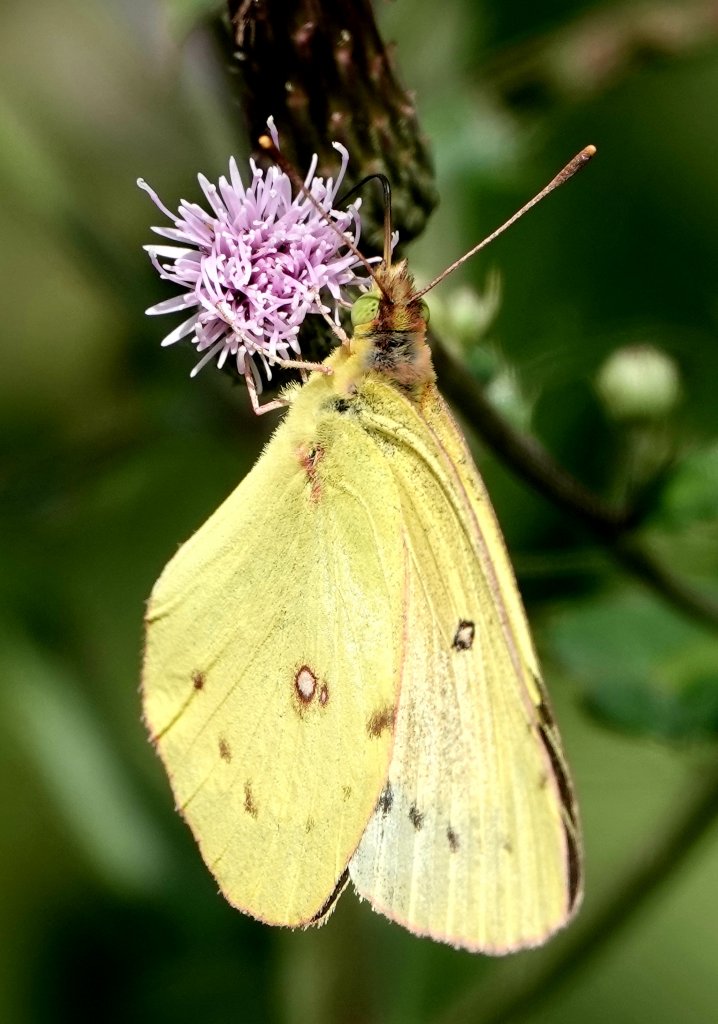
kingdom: Animalia
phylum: Arthropoda
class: Insecta
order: Lepidoptera
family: Pieridae
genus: Colias
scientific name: Colias philodice
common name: Clouded Sulphur
